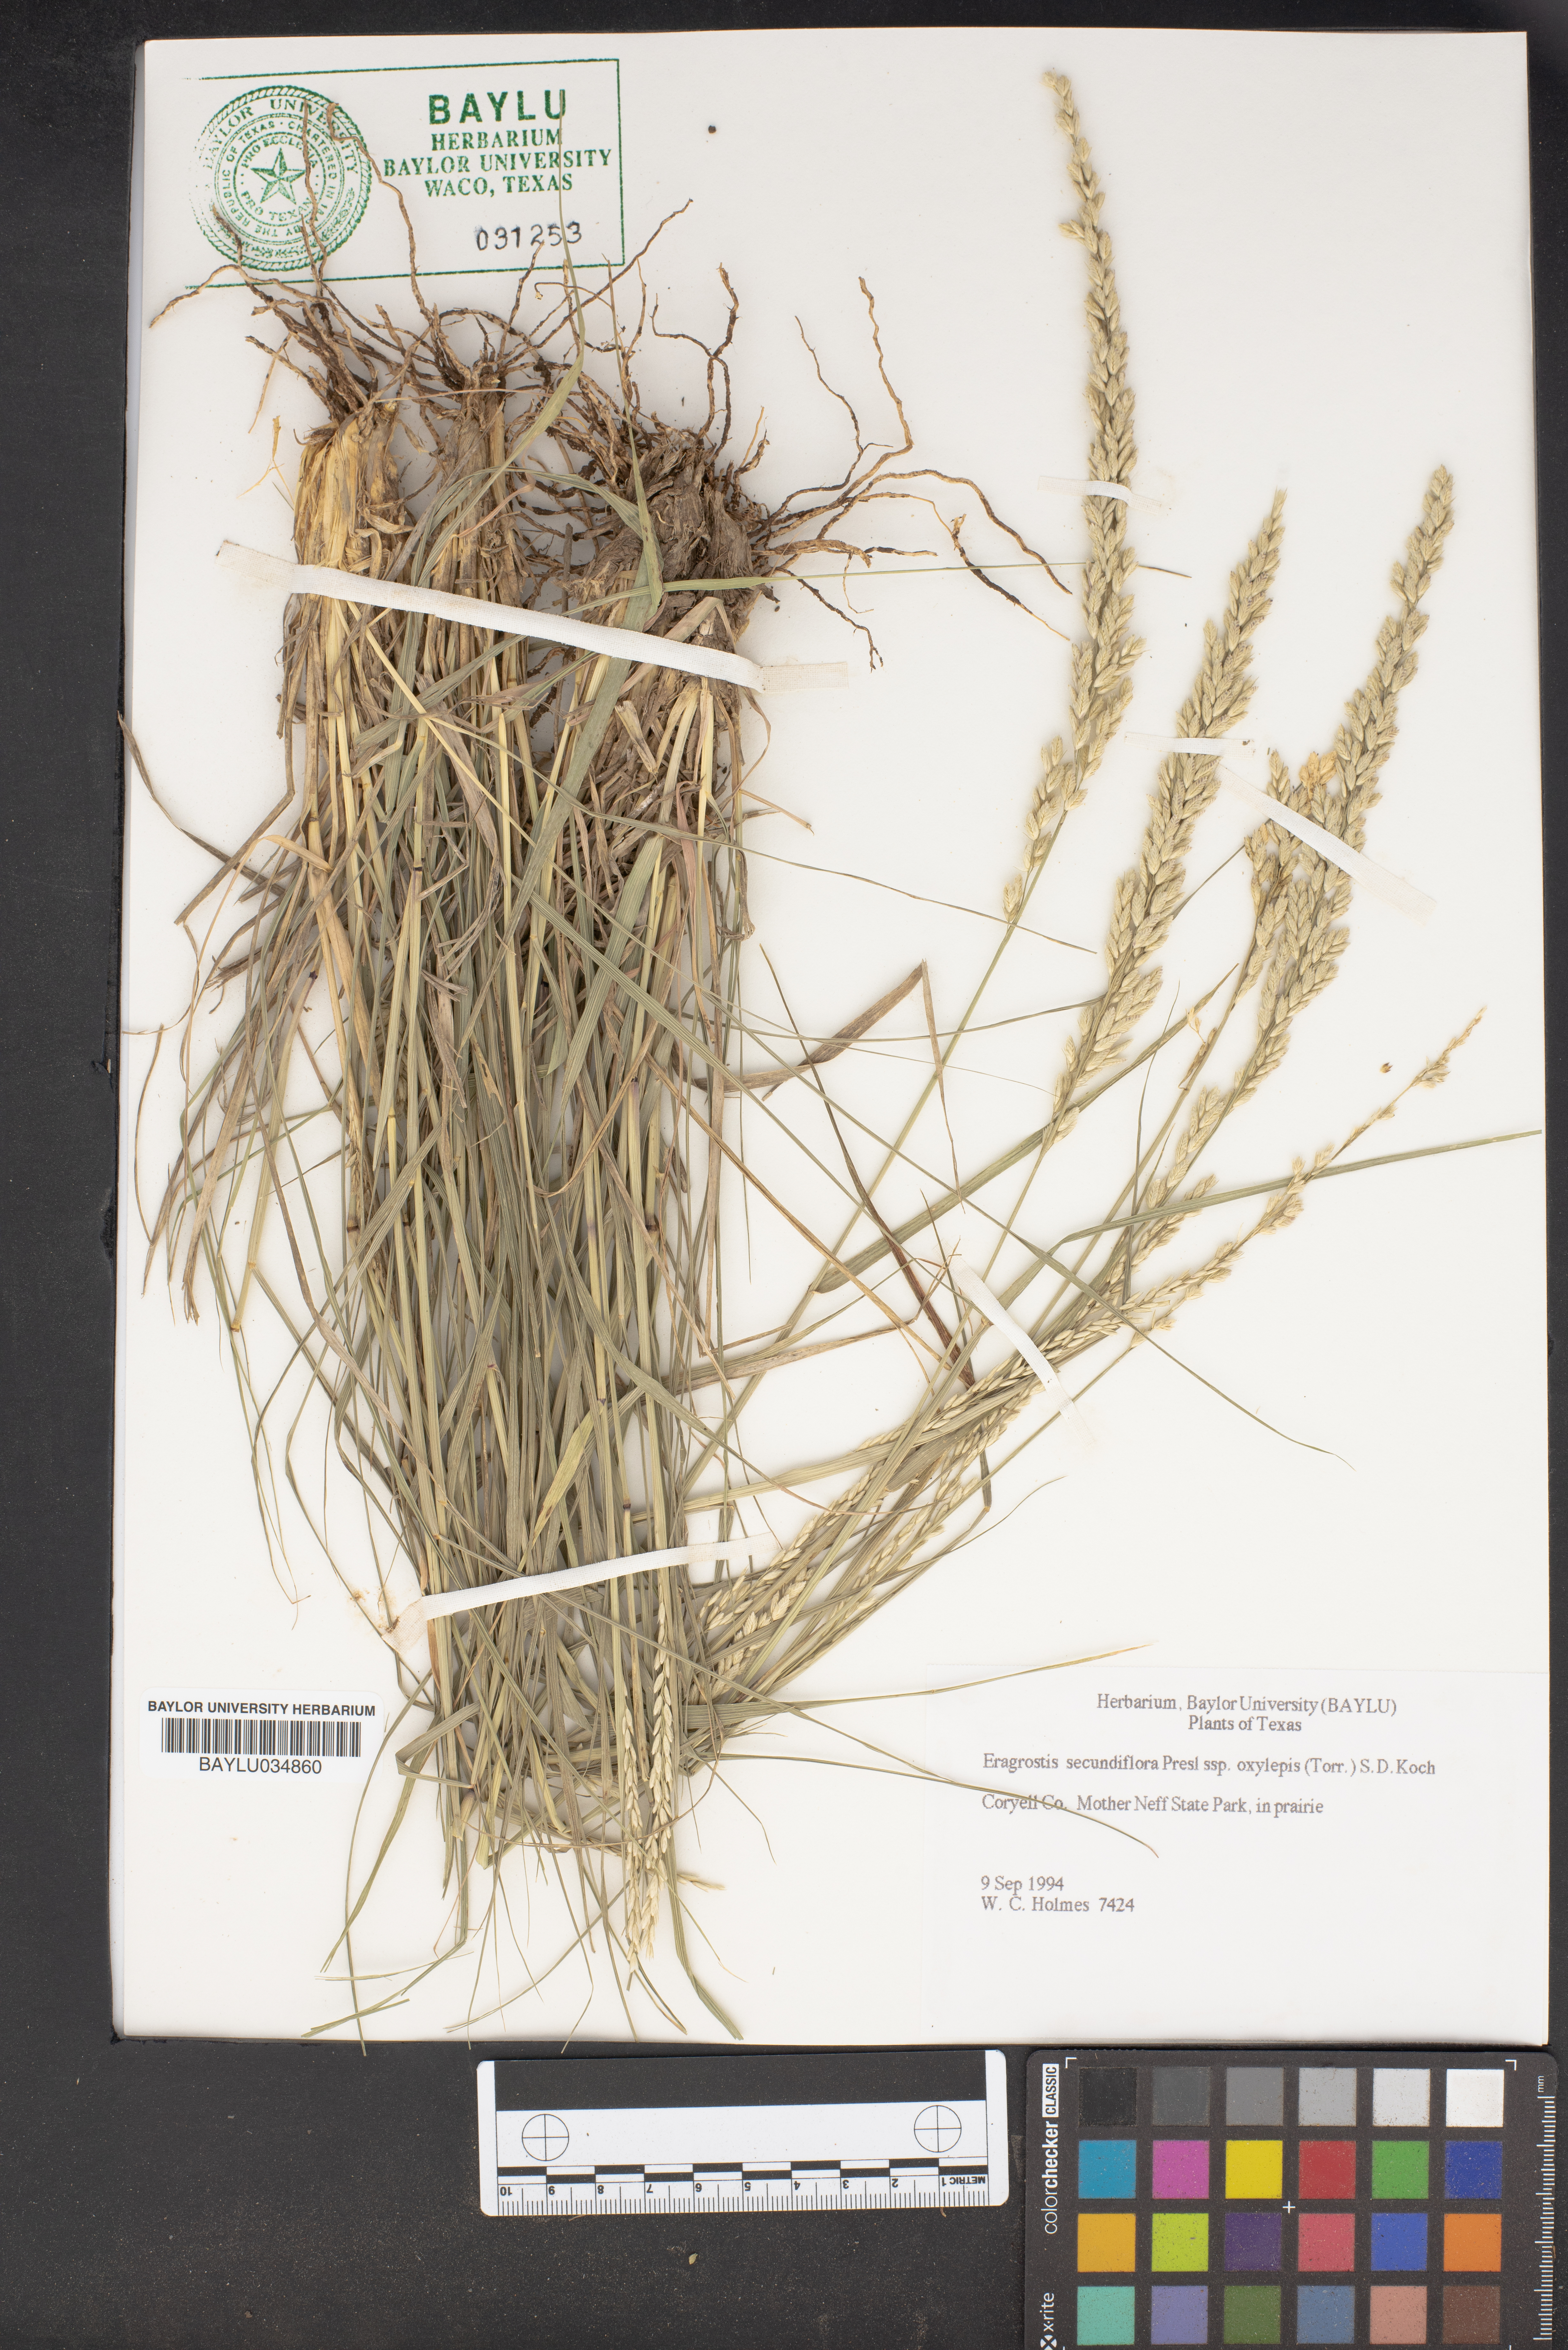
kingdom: Plantae
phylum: Tracheophyta
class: Liliopsida
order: Poales
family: Poaceae
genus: Eragrostis
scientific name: Eragrostis secundiflora
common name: Red love grass
